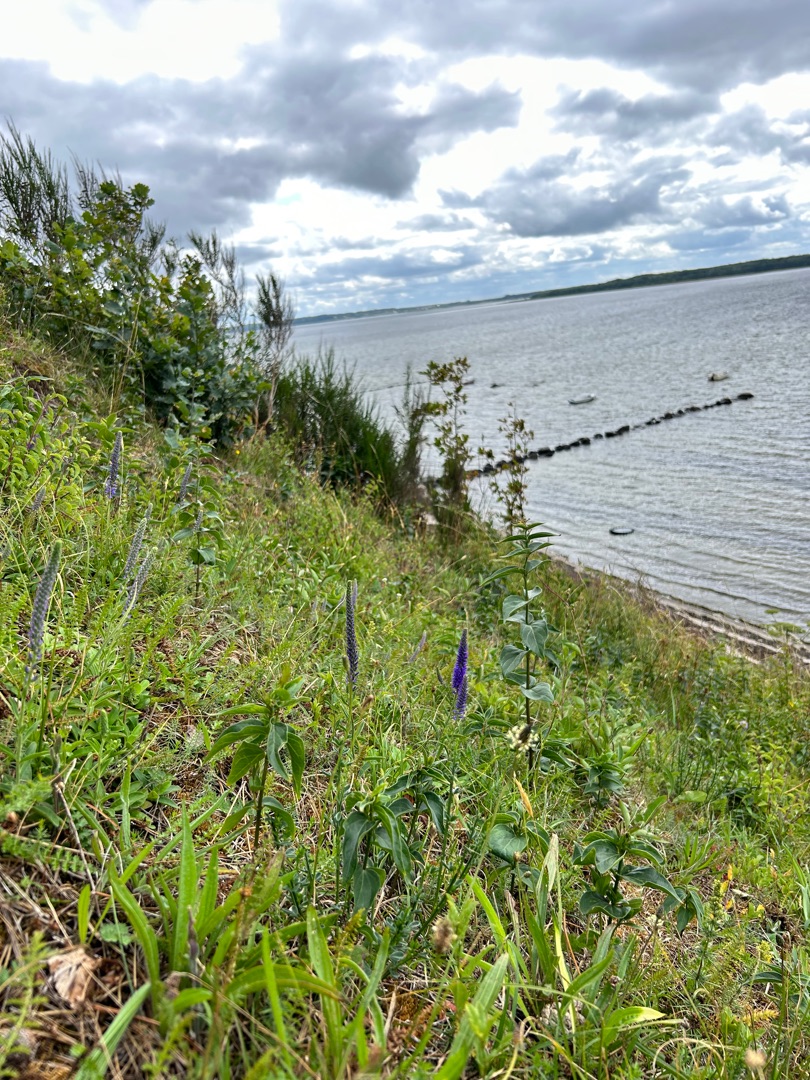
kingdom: Plantae
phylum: Tracheophyta
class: Magnoliopsida
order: Lamiales
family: Plantaginaceae
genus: Veronica
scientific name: Veronica spicata
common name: Aks-ærenpris
